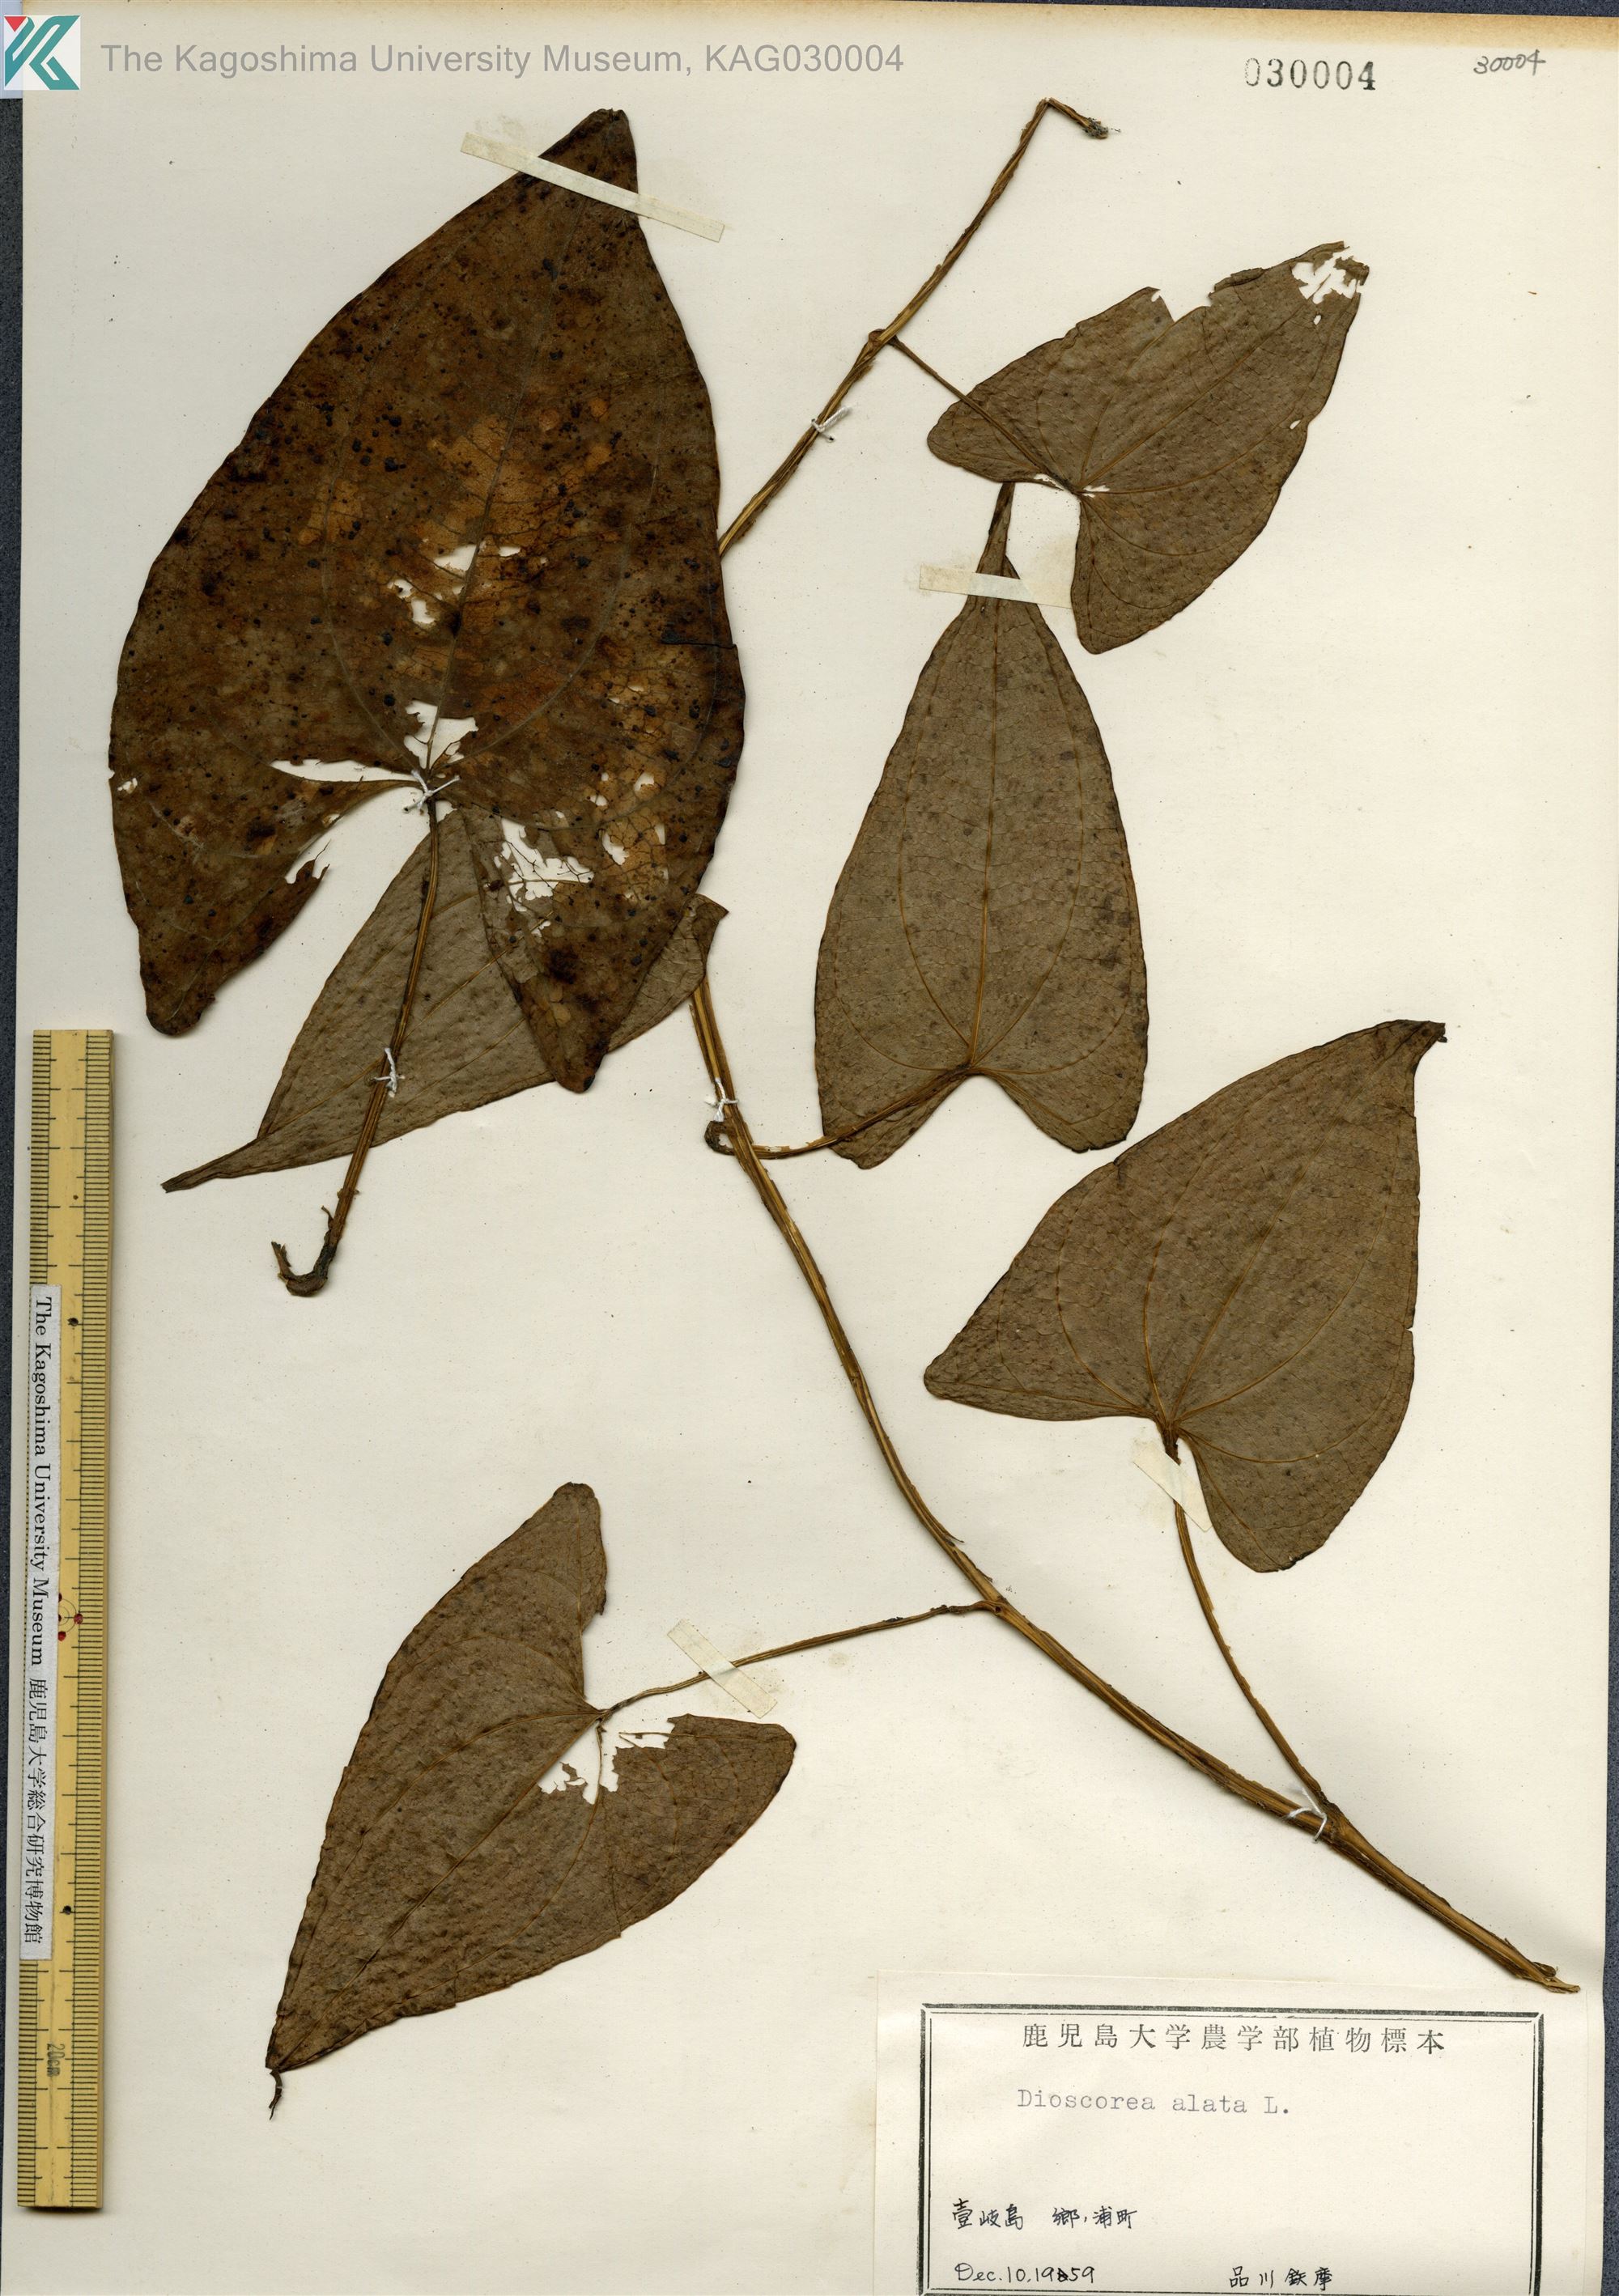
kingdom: Plantae
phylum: Tracheophyta
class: Liliopsida
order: Dioscoreales
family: Dioscoreaceae
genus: Dioscorea
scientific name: Dioscorea alata
